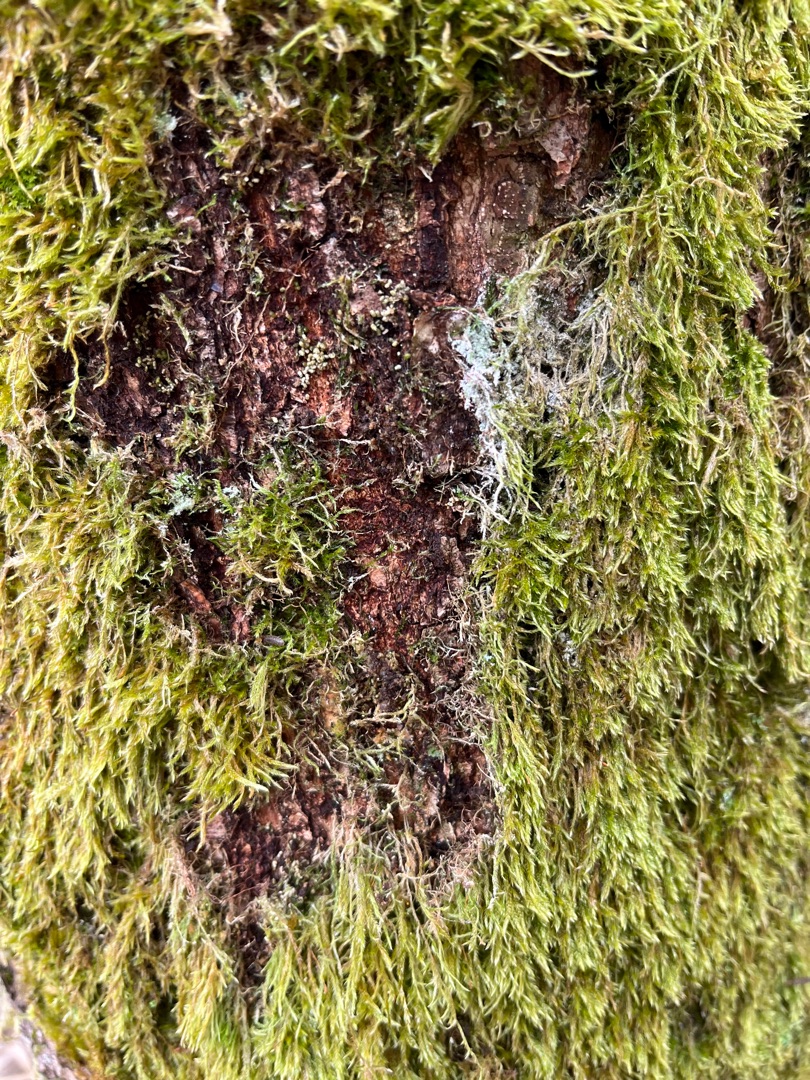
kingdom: Plantae
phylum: Bryophyta
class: Bryopsida
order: Hypnales
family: Hypnaceae
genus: Hypnum
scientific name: Hypnum
